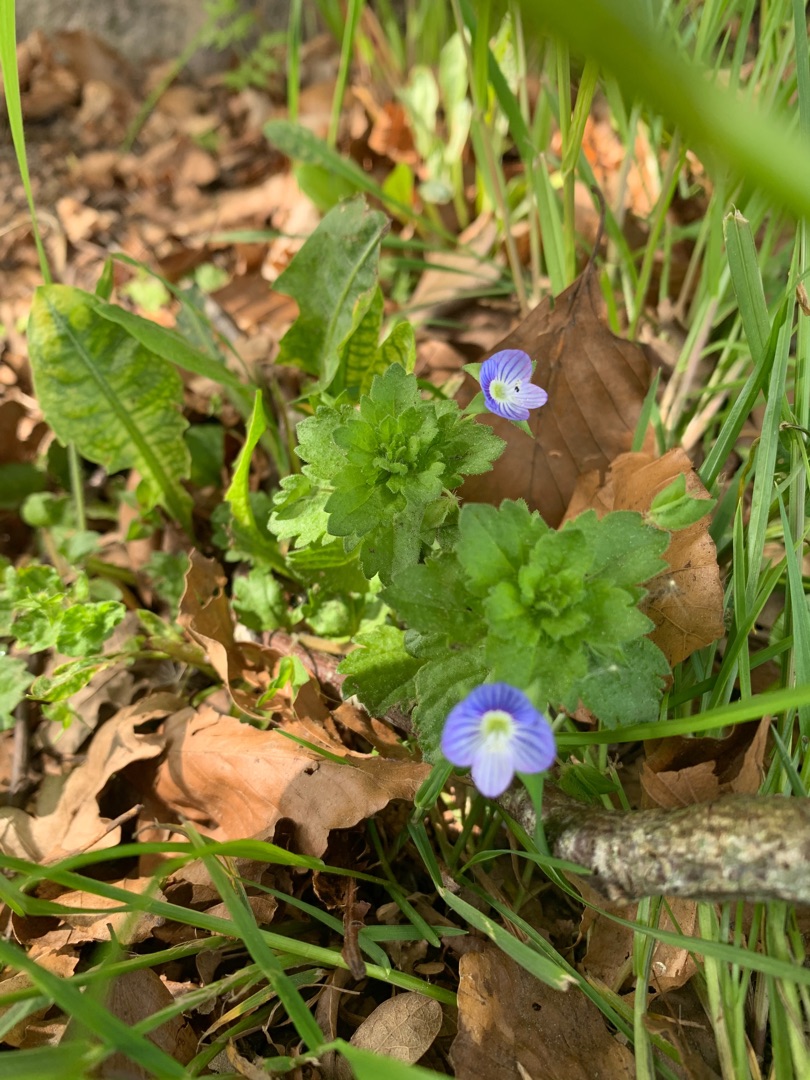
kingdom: Plantae
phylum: Tracheophyta
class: Magnoliopsida
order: Lamiales
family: Plantaginaceae
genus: Veronica
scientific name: Veronica persica
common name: Storkronet ærenpris
